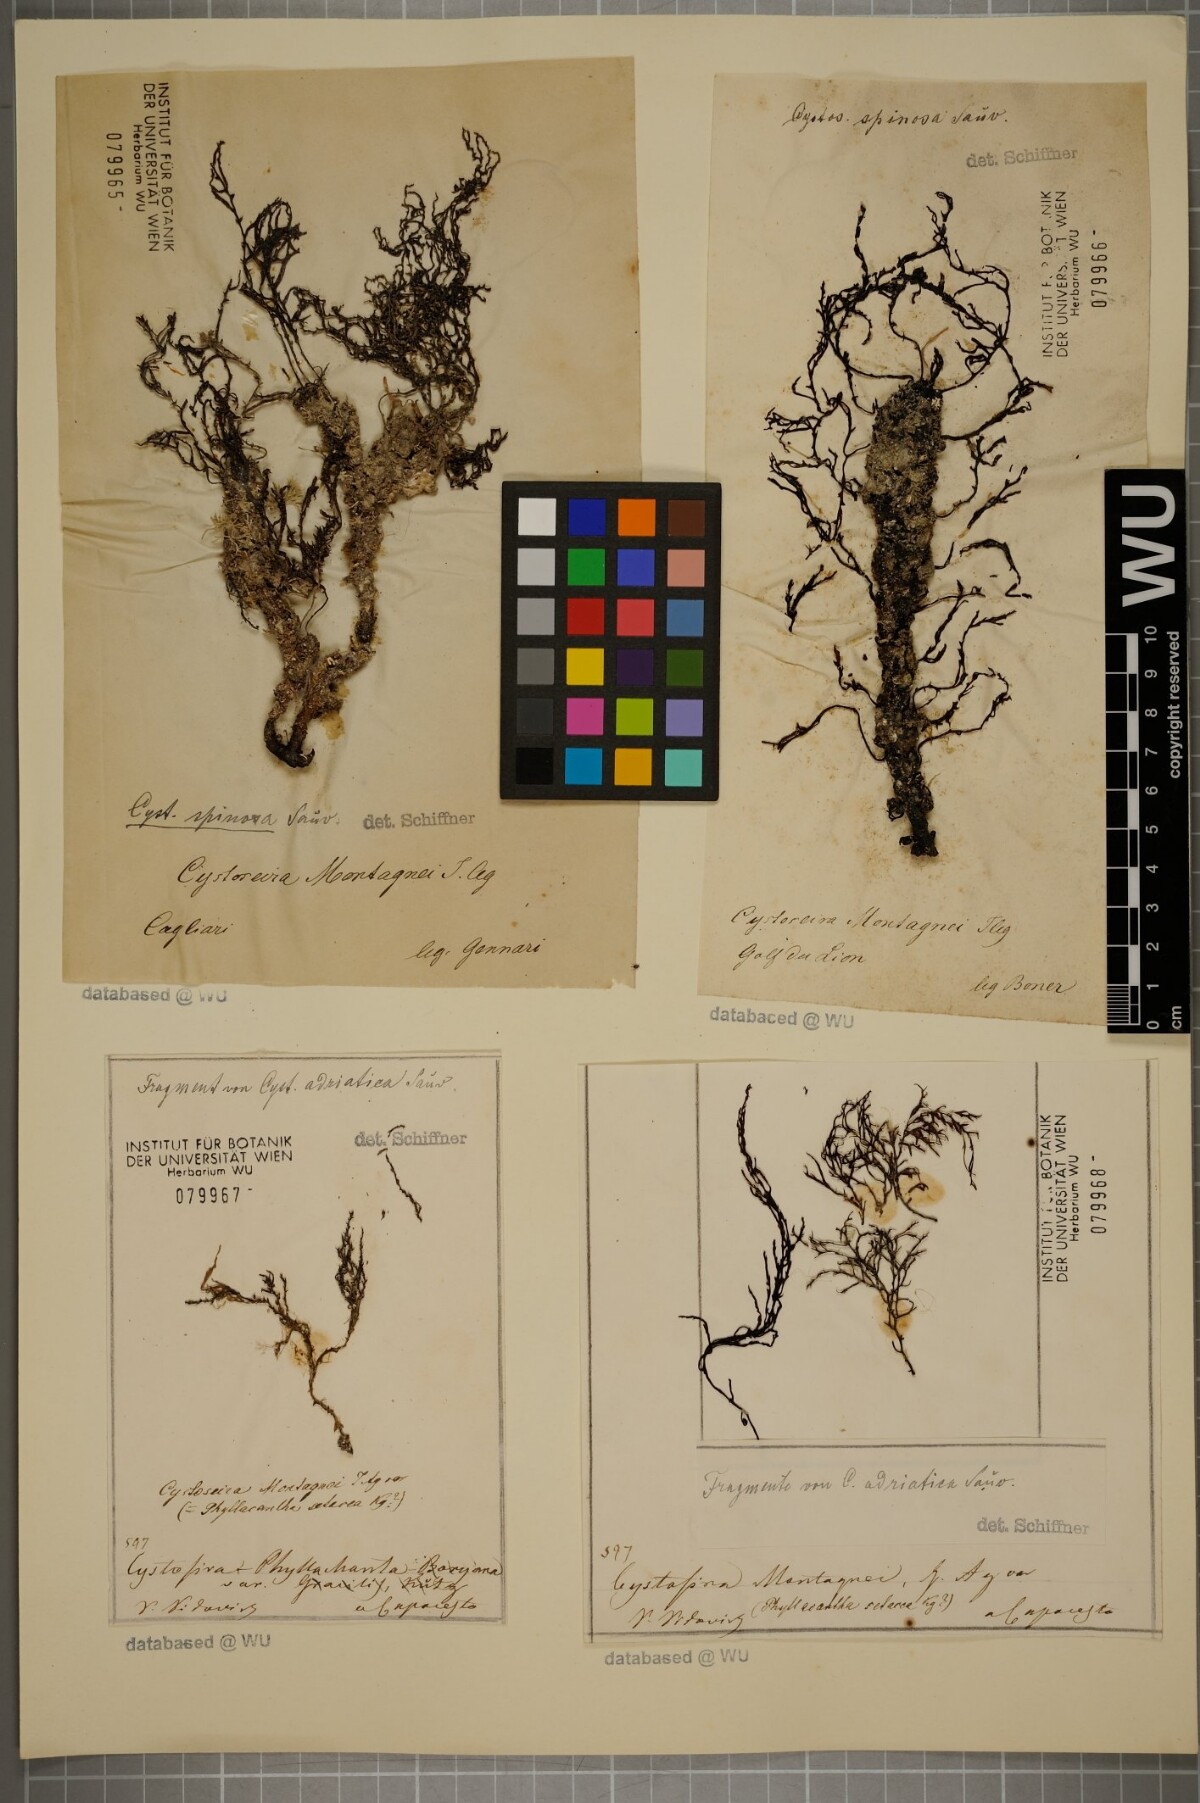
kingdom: Chromista
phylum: Ochrophyta
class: Phaeophyceae
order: Fucales
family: Sargassaceae
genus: Cystoseira
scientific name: Cystoseira Gongolaria montagnei
